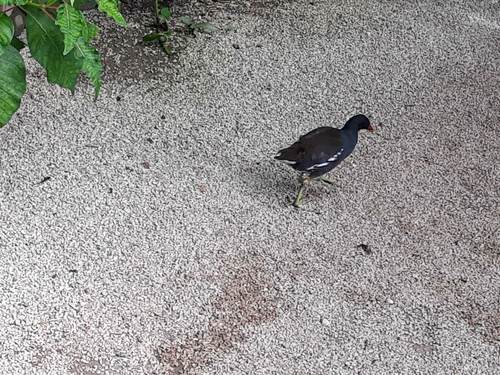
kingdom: Animalia
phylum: Chordata
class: Aves
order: Gruiformes
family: Rallidae
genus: Gallinula
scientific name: Gallinula chloropus
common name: Common moorhen
